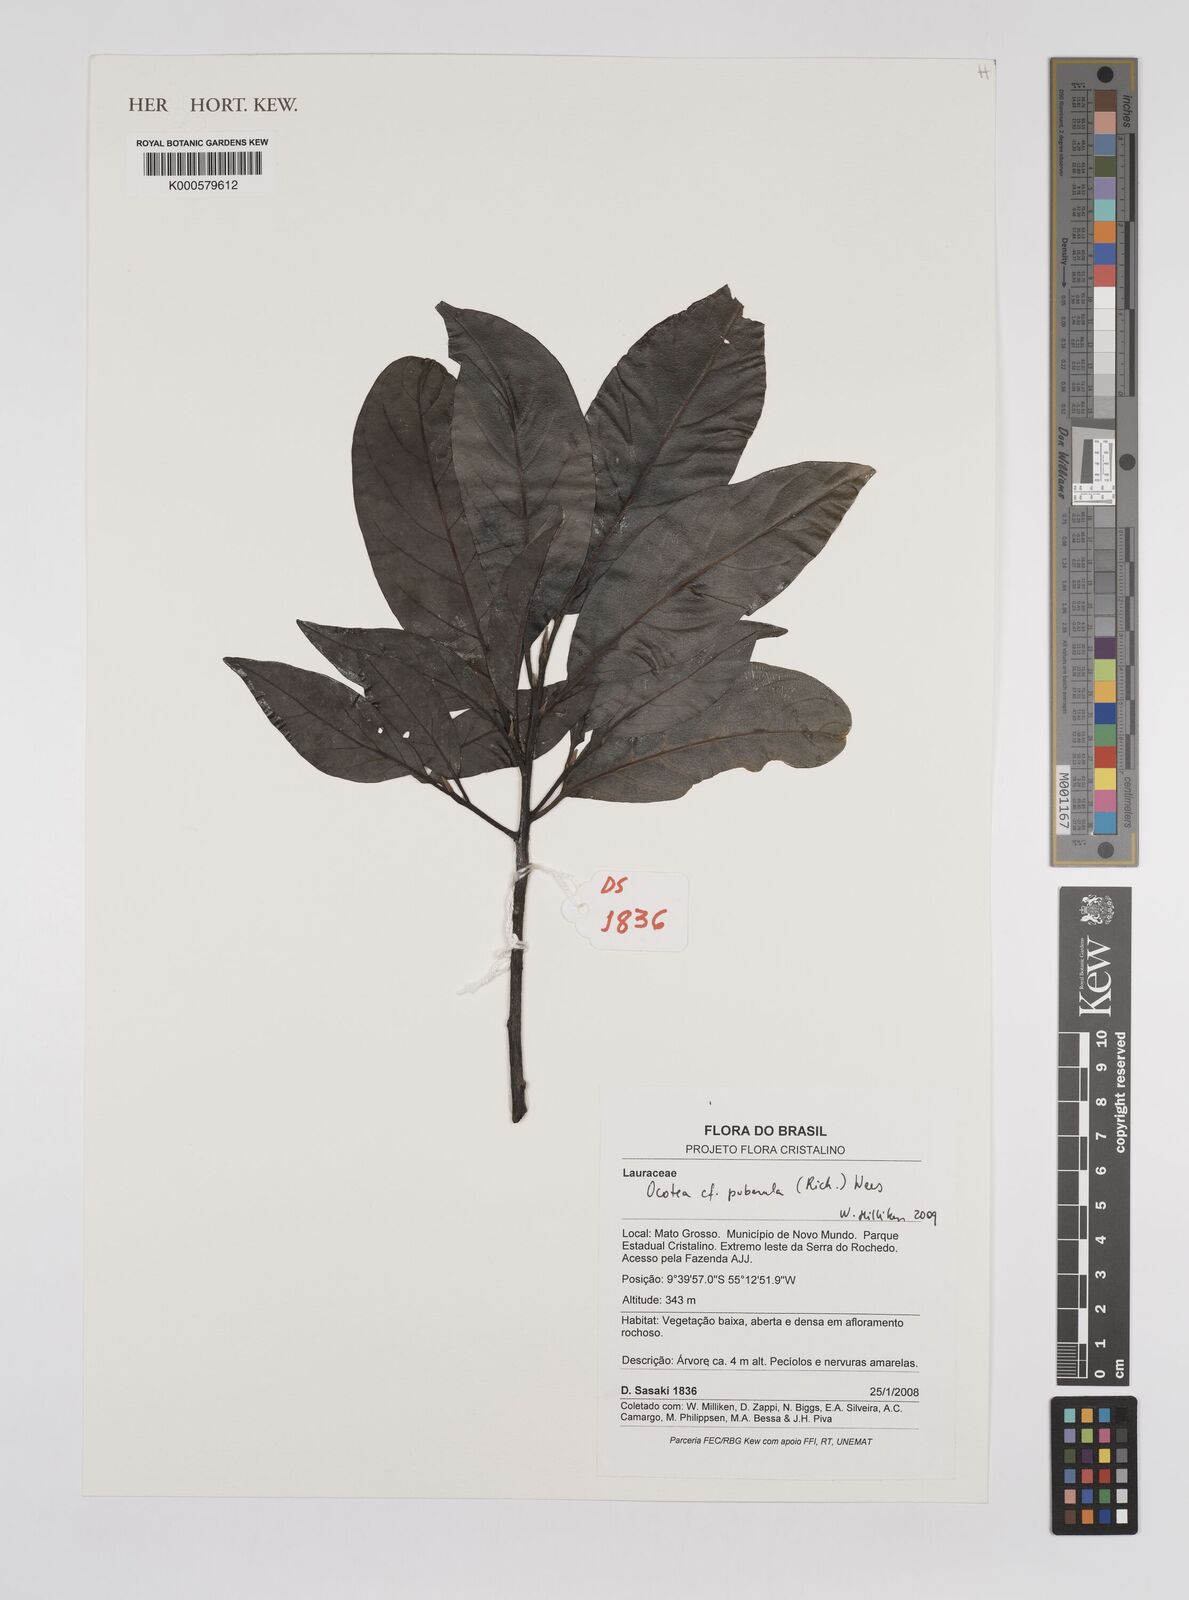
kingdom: Plantae
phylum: Tracheophyta
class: Magnoliopsida
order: Laurales
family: Lauraceae
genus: Ocotea
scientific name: Ocotea puberula
